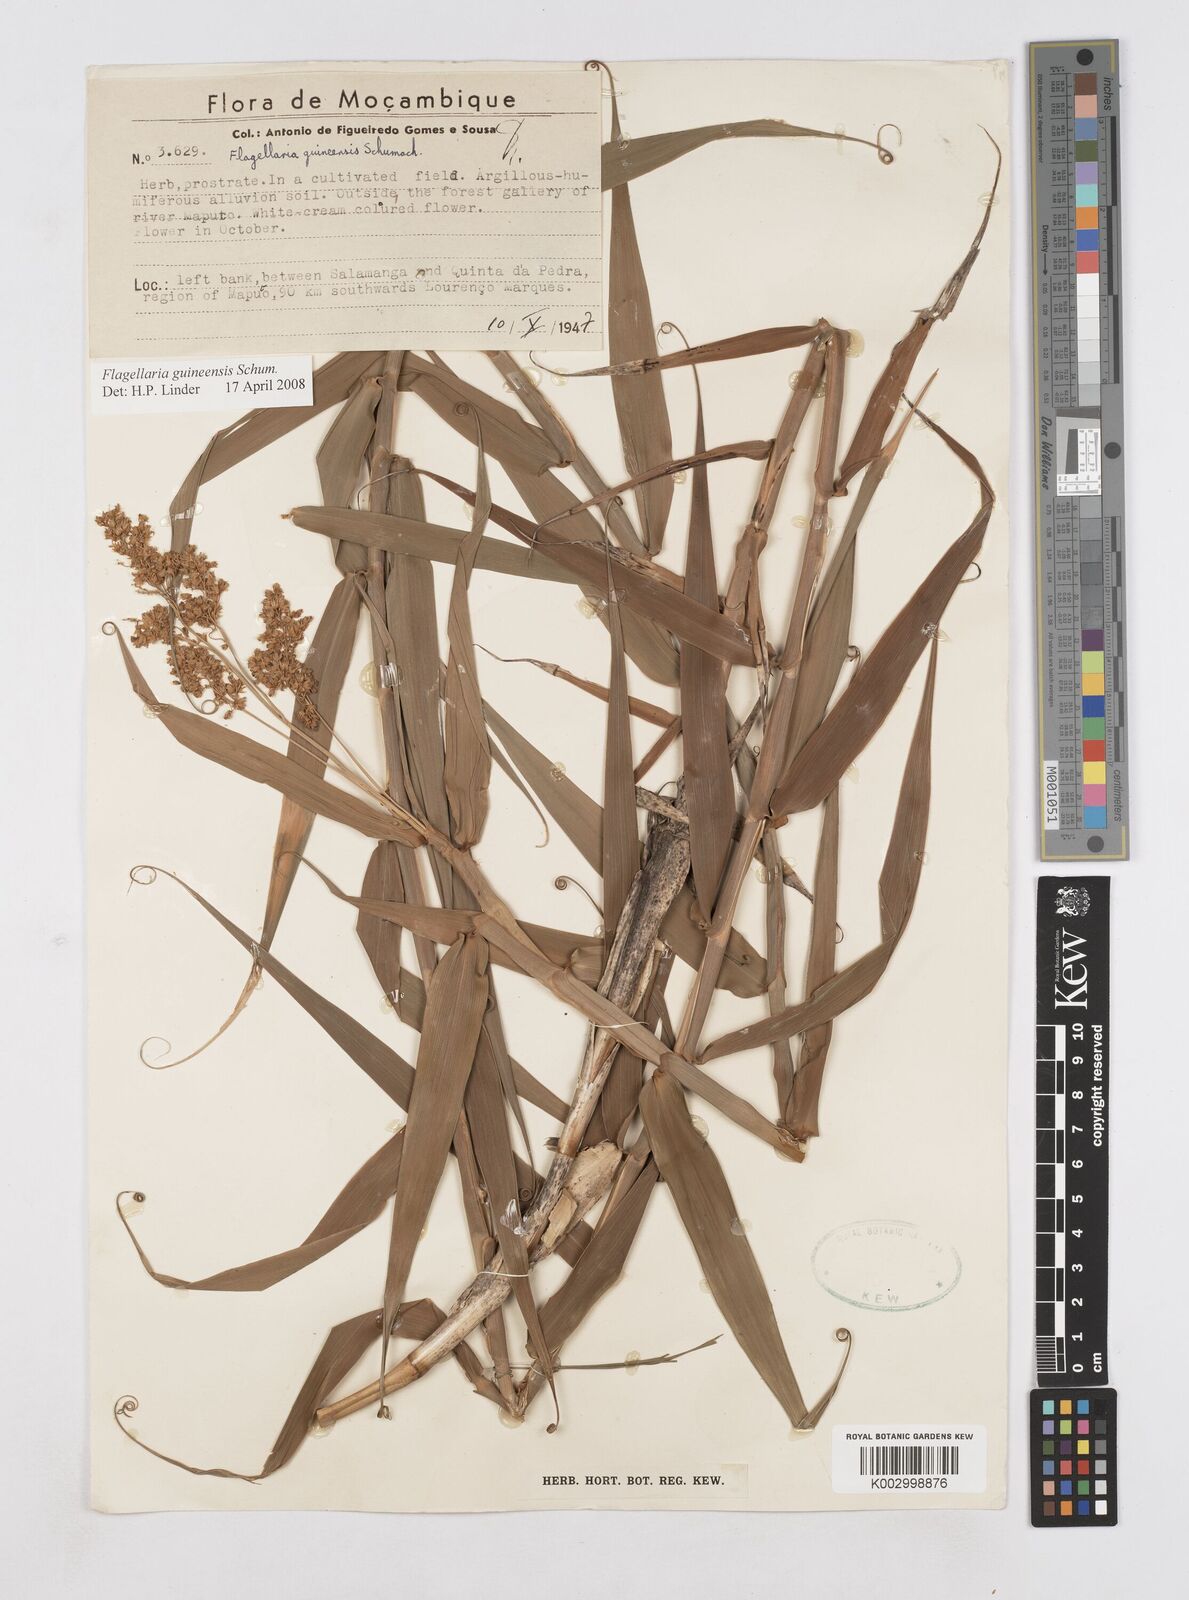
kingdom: Plantae
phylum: Tracheophyta
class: Liliopsida
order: Poales
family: Flagellariaceae
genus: Flagellaria
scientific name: Flagellaria guineensis
